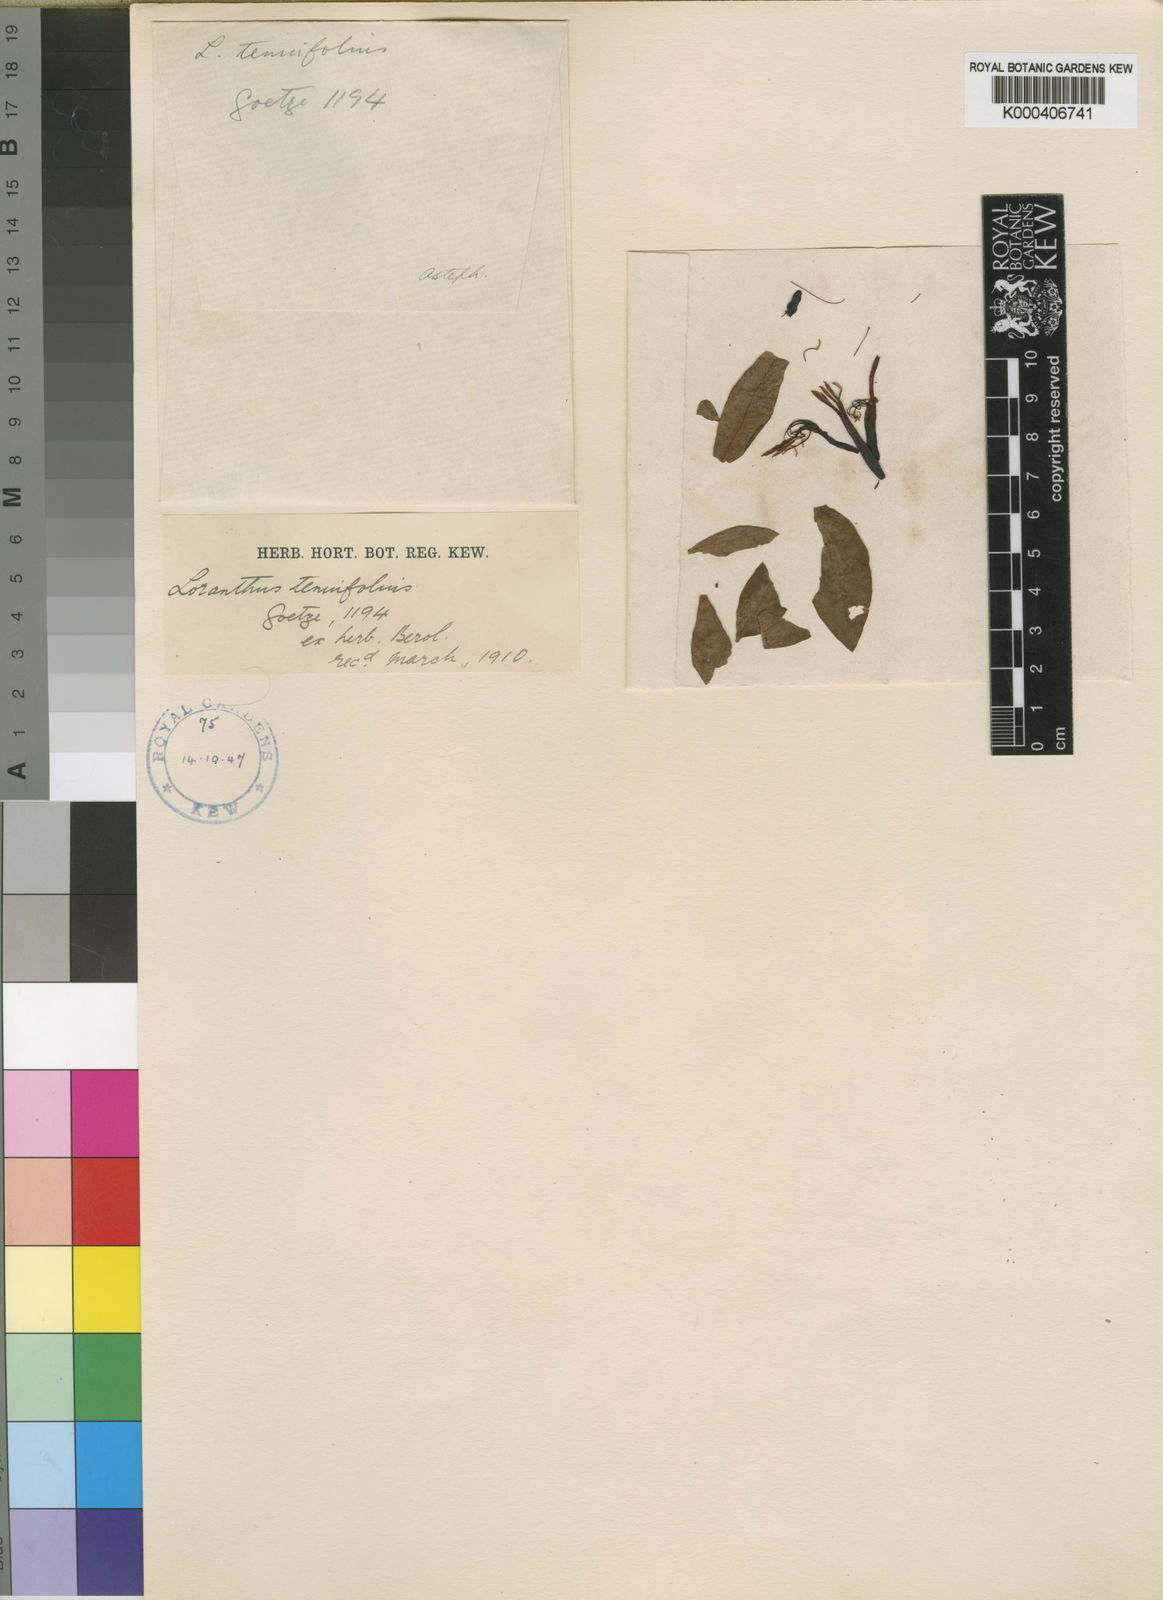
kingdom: Plantae
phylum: Tracheophyta
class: Magnoliopsida
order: Santalales
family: Loranthaceae
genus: Englerina
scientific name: Englerina inaequilatera
